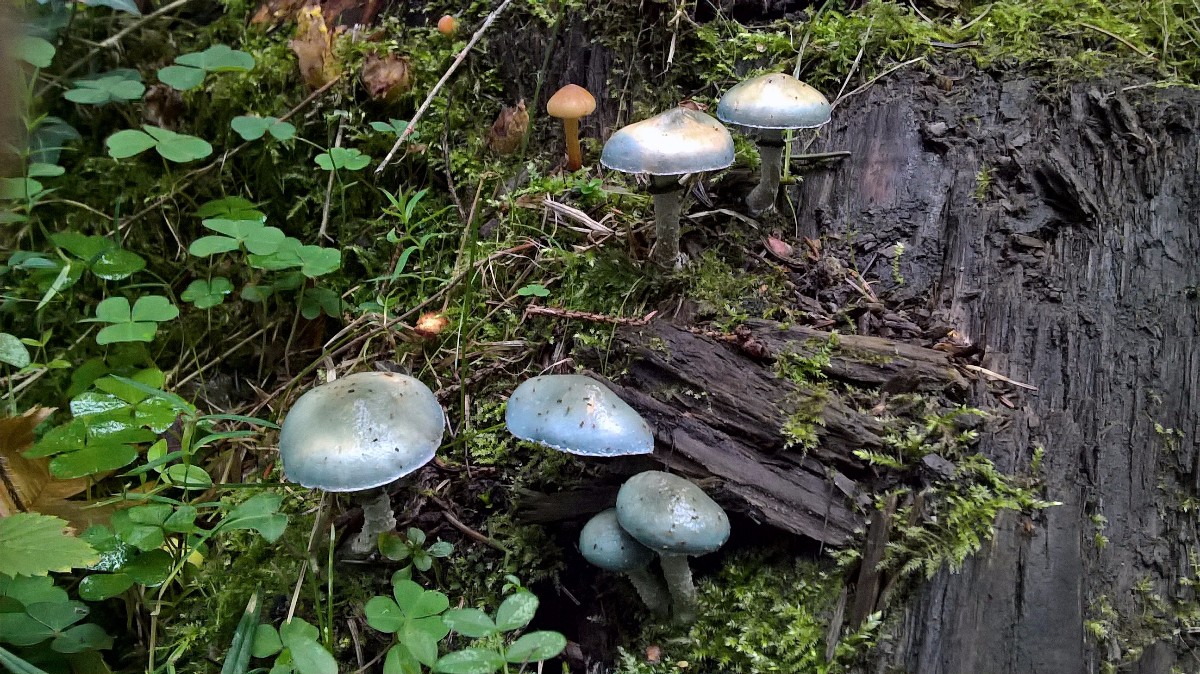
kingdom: Fungi
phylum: Basidiomycota
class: Agaricomycetes
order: Agaricales
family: Strophariaceae
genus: Stropharia
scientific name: Stropharia aeruginosa
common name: spanskgrøn bredblad
